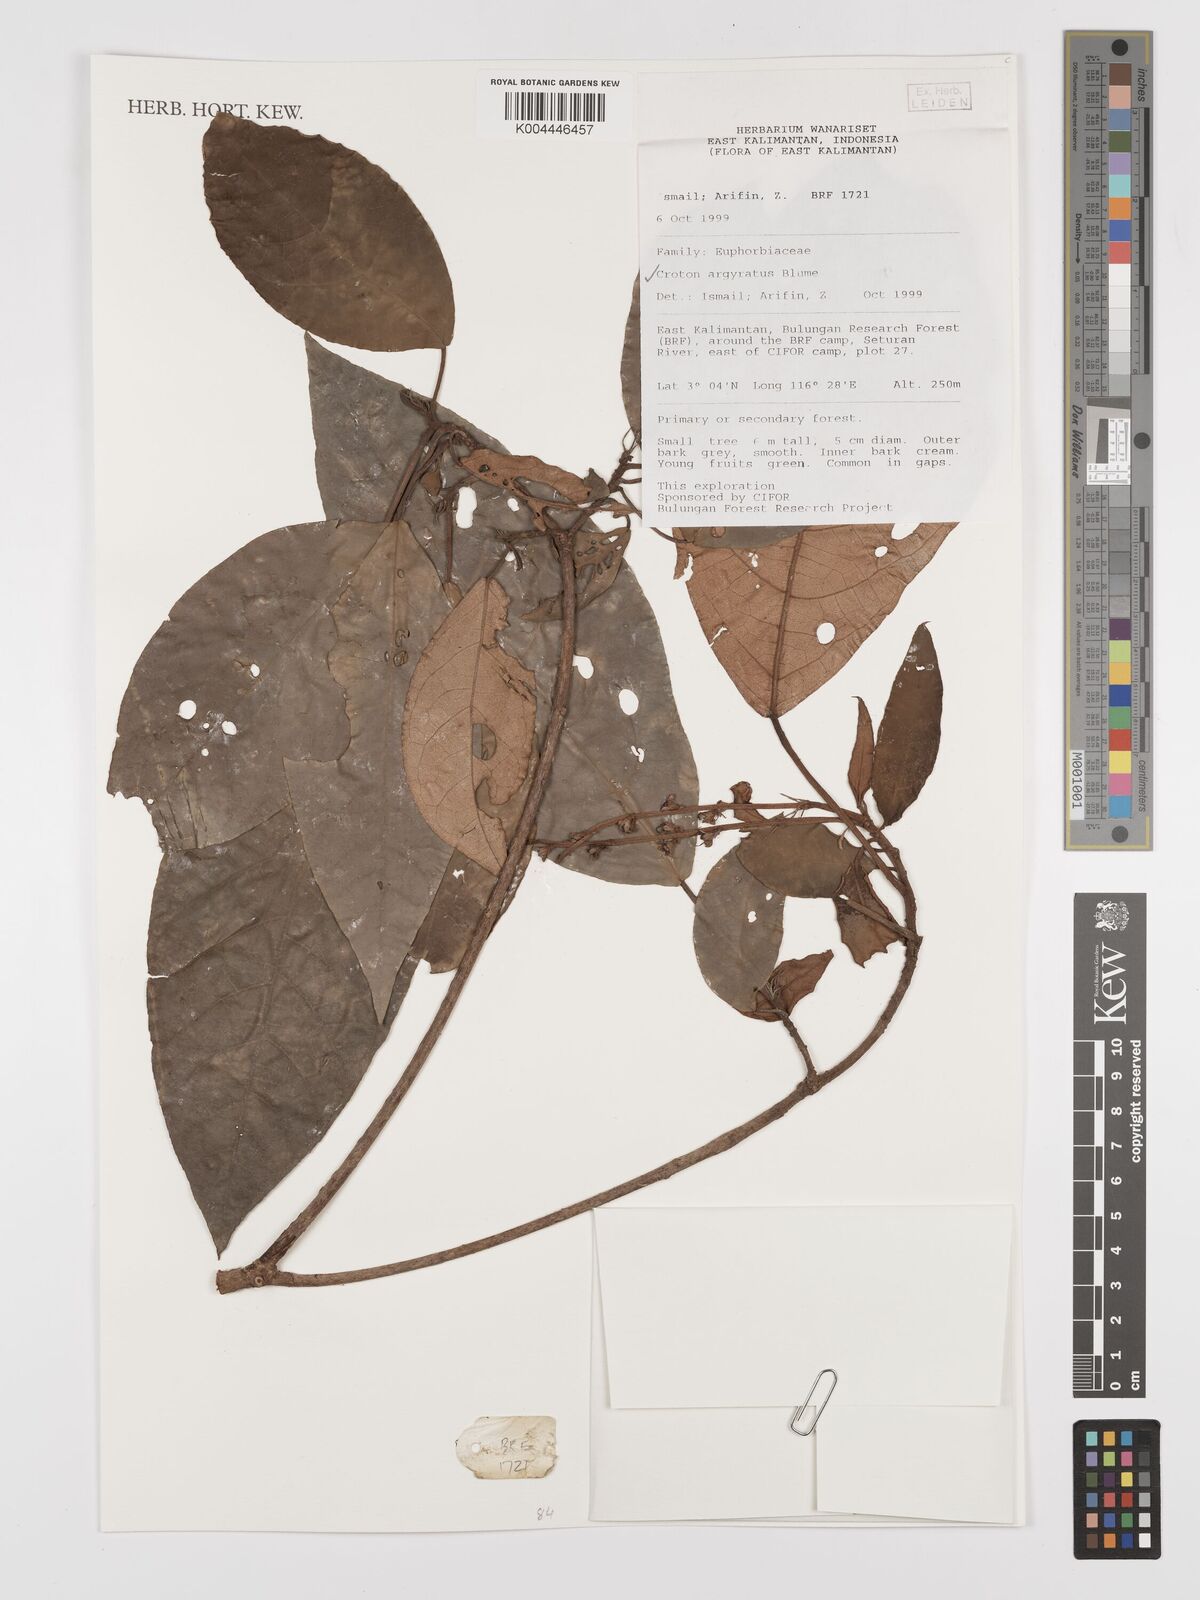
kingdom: Plantae
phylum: Tracheophyta
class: Magnoliopsida
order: Malpighiales
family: Euphorbiaceae
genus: Croton
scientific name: Croton argyratus
